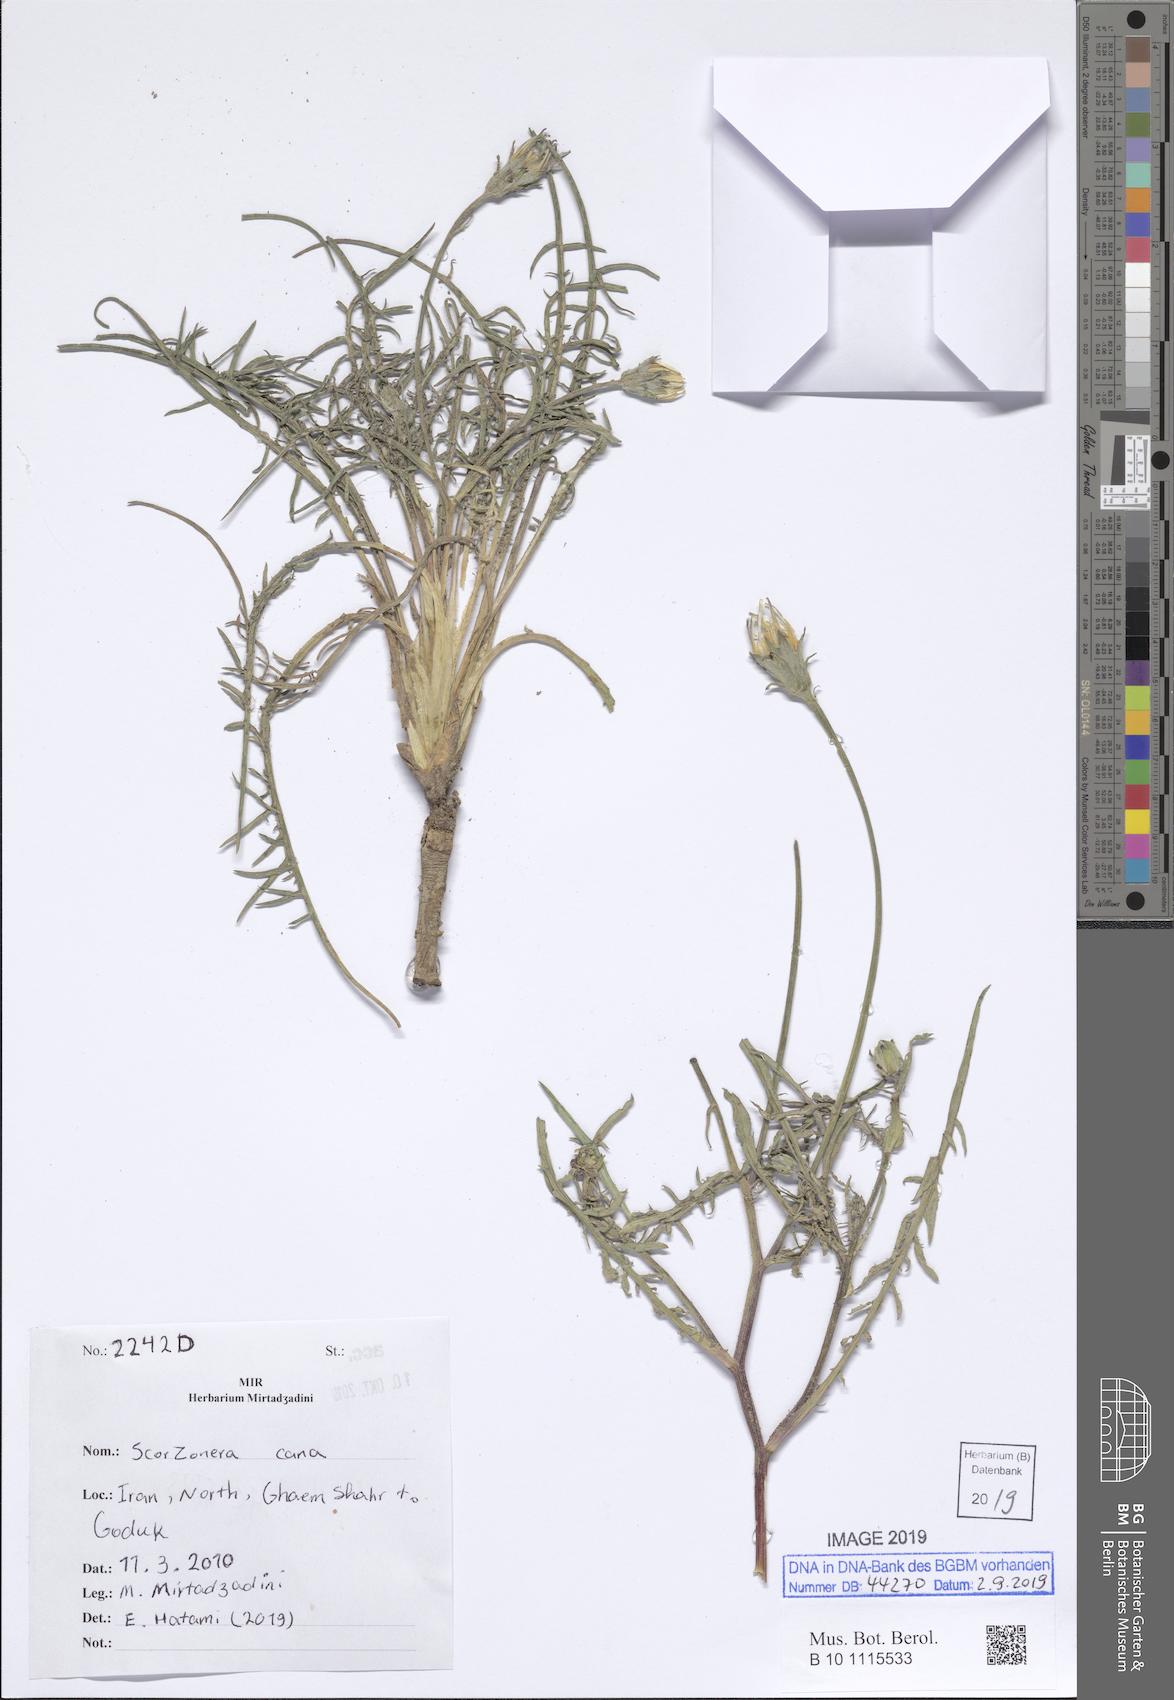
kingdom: Plantae
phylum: Tracheophyta
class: Magnoliopsida
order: Asterales
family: Asteraceae
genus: Scorzonera
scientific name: Scorzonera cana
